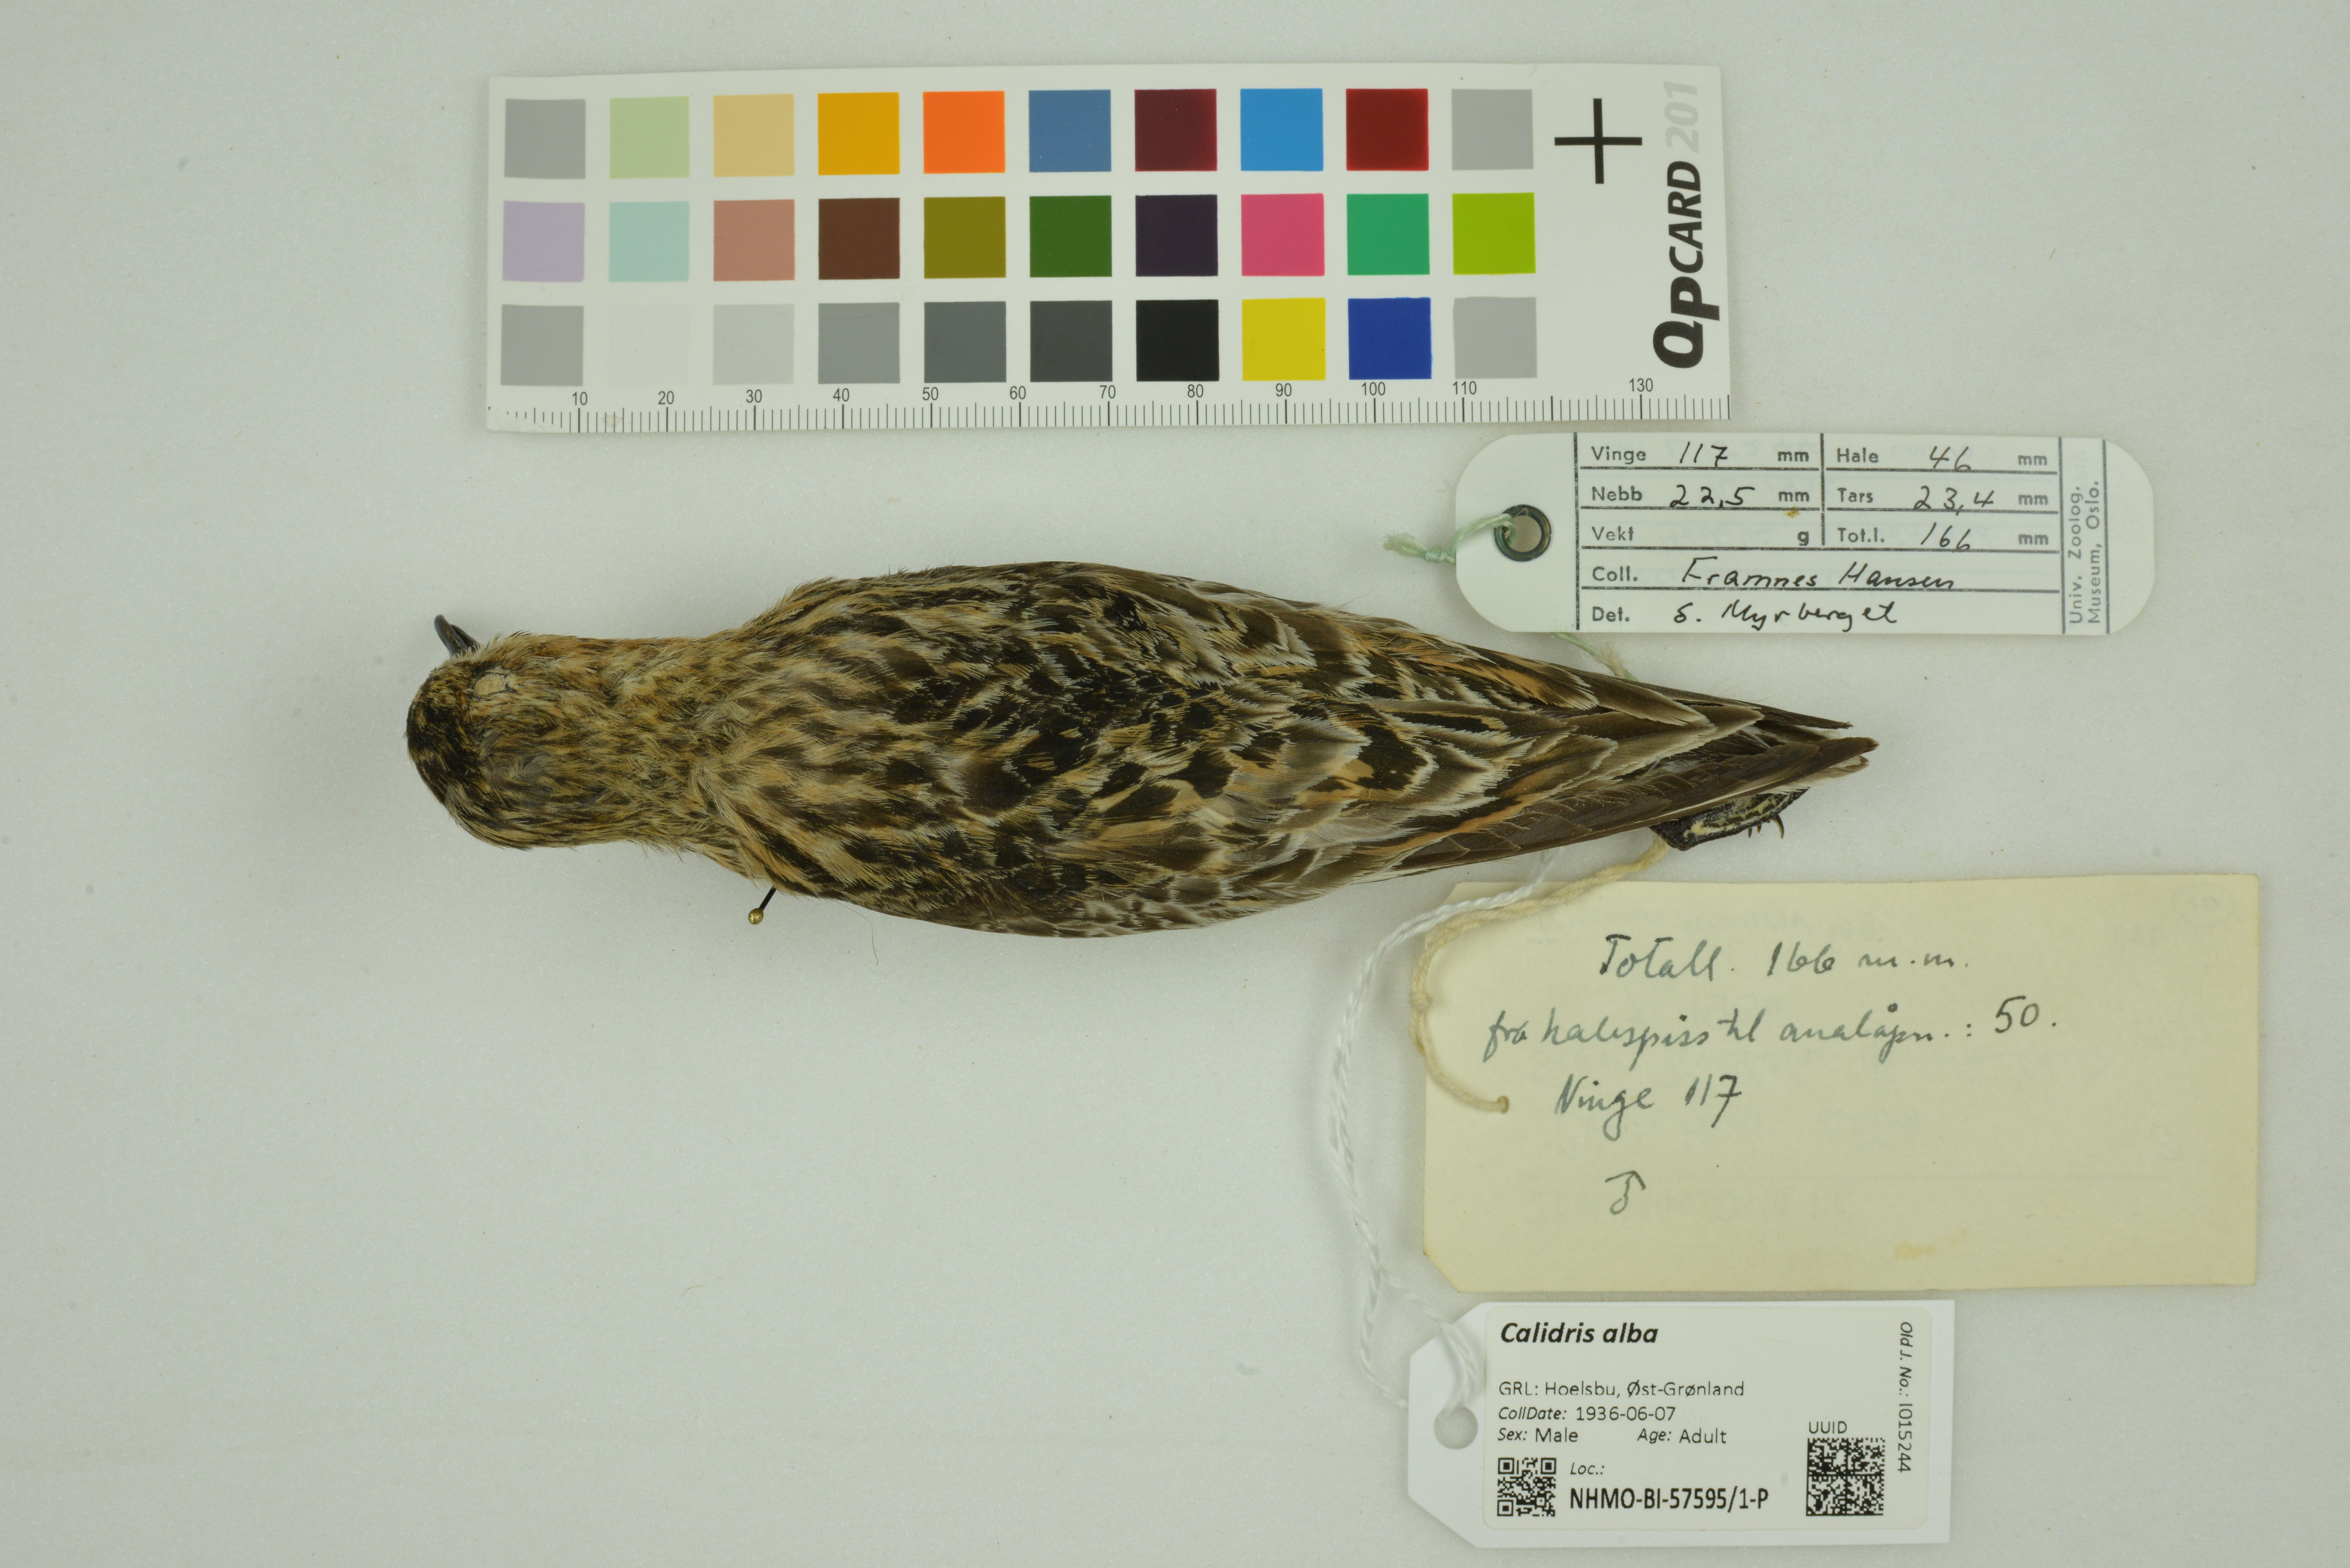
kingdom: Animalia
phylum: Chordata
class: Aves
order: Charadriiformes
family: Scolopacidae
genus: Calidris
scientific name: Calidris alba
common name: Sanderling
